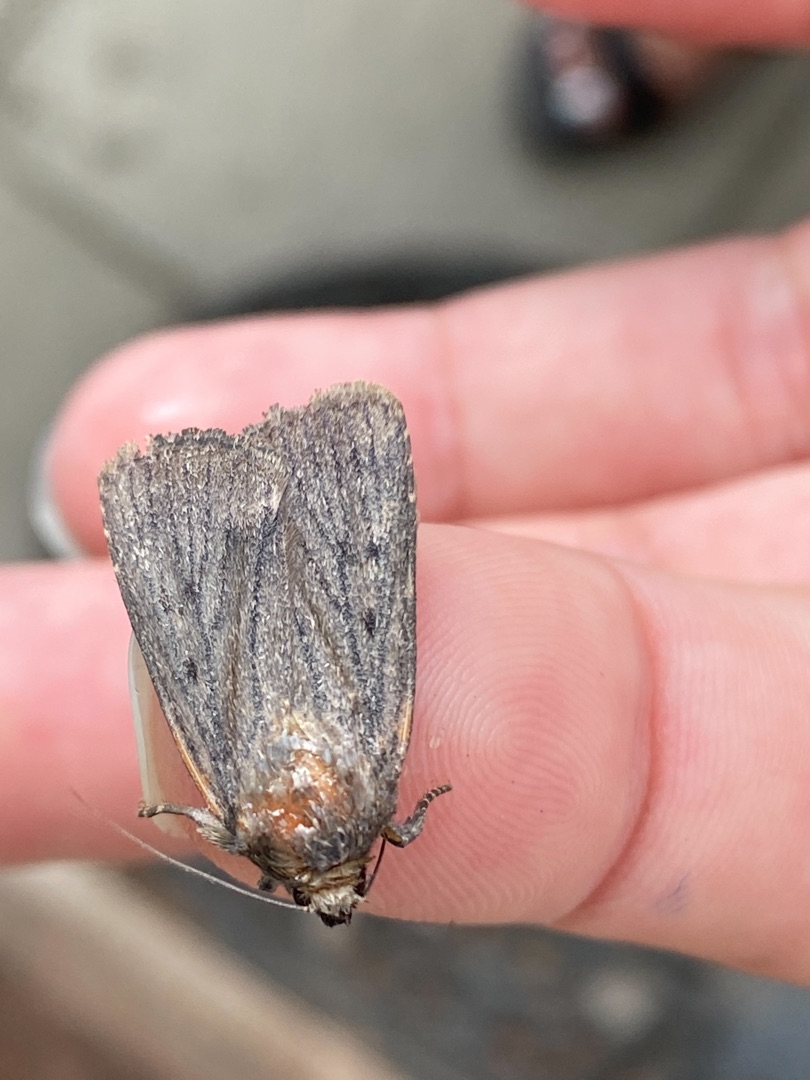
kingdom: Animalia
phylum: Arthropoda
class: Insecta
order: Lepidoptera
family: Noctuidae
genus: Amphipyra
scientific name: Amphipyra tragopoginis
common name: Blyantsugle
